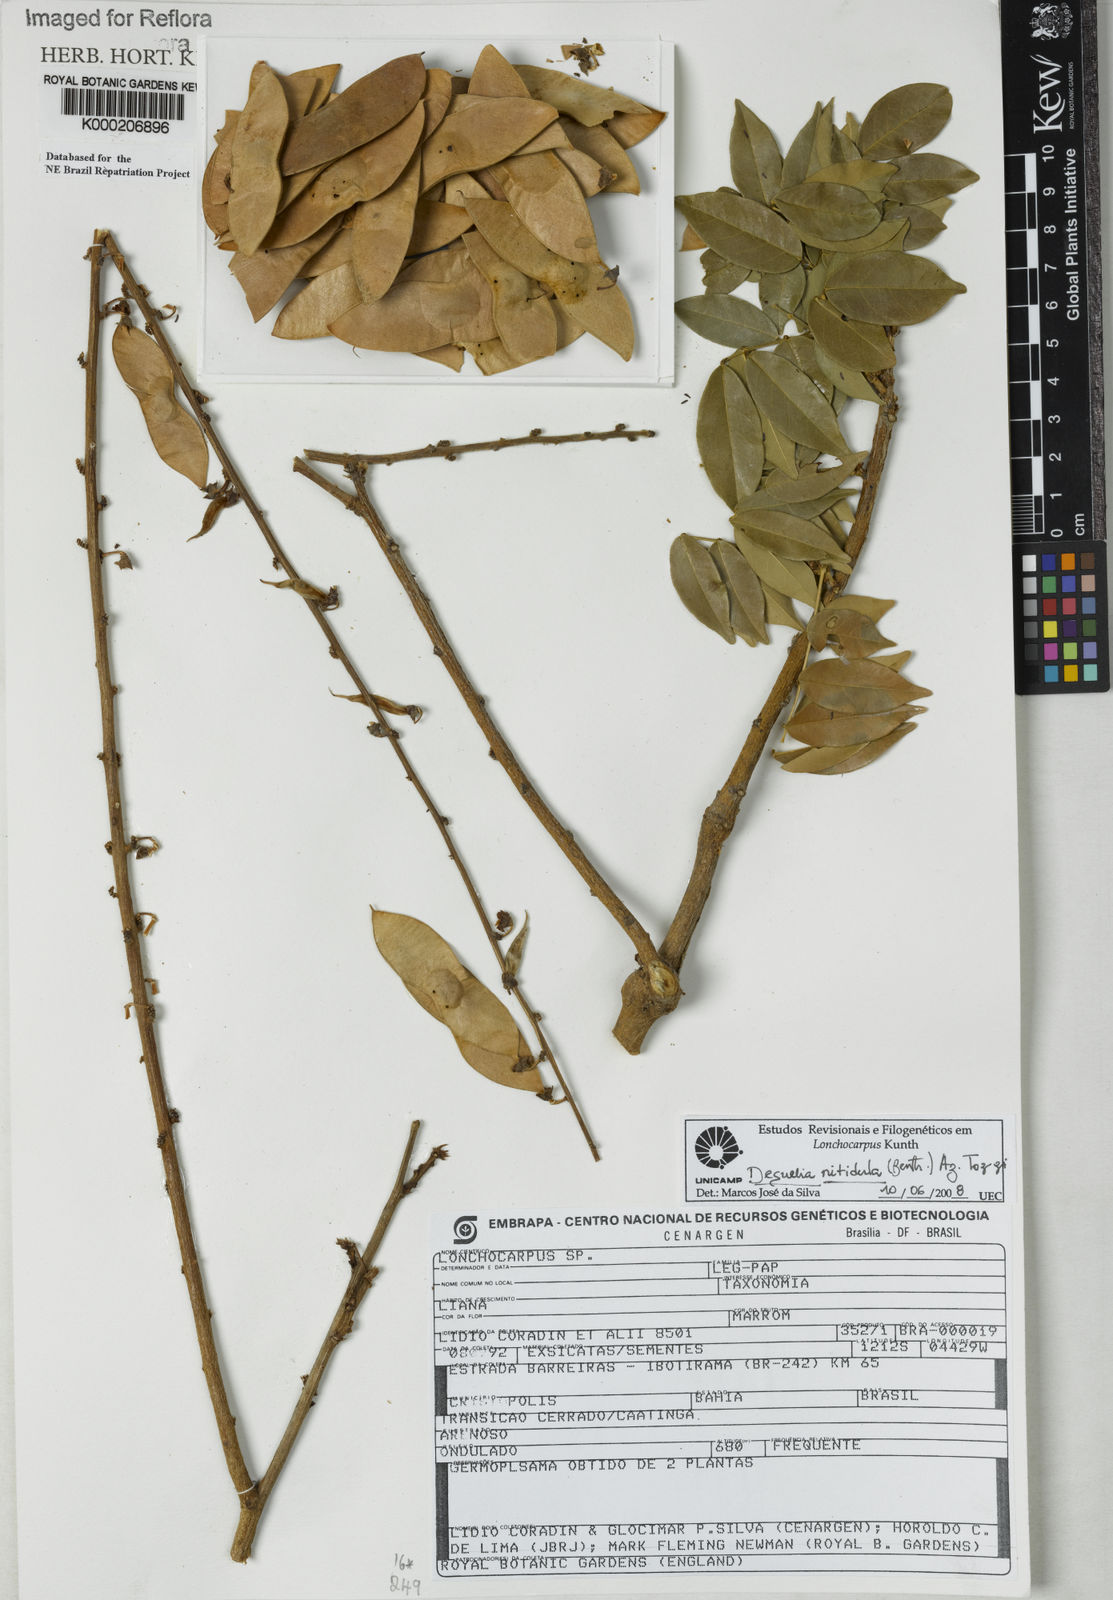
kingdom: Plantae
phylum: Tracheophyta
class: Magnoliopsida
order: Fabales
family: Fabaceae
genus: Lonchocarpus
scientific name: Lonchocarpus
